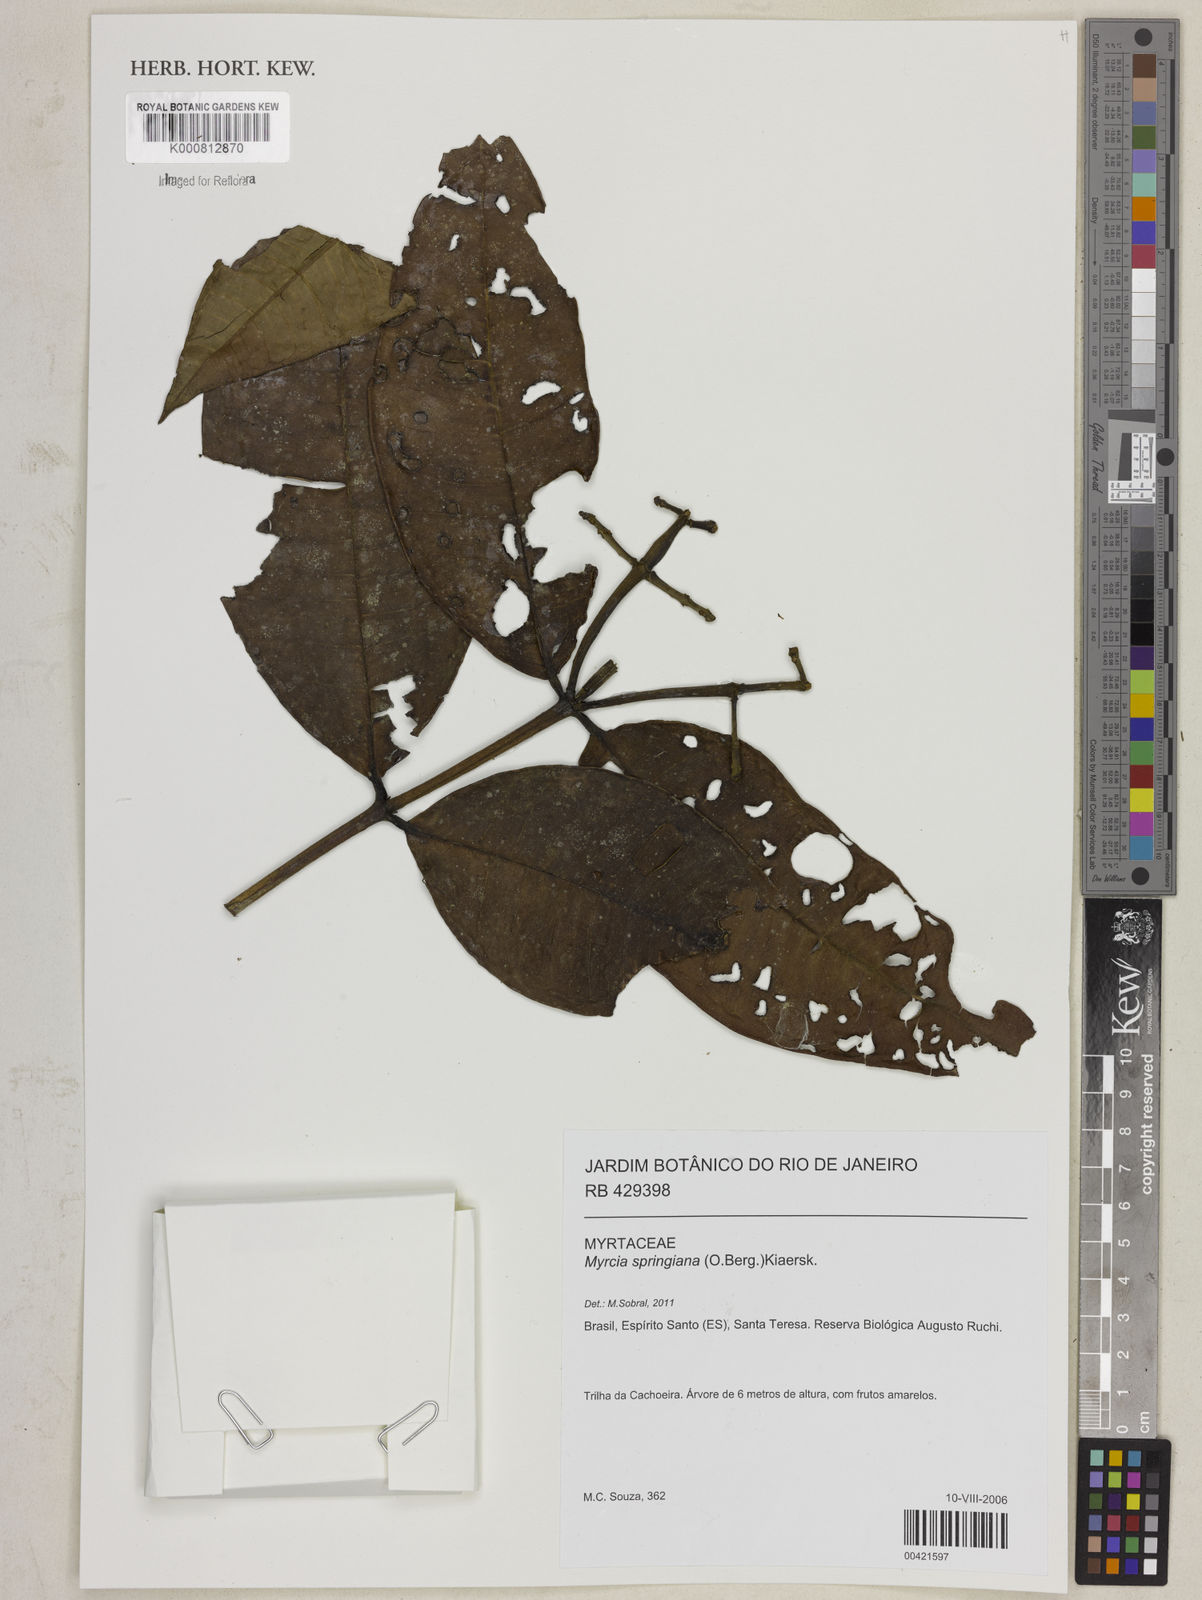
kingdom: Plantae
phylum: Tracheophyta
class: Magnoliopsida
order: Myrtales
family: Myrtaceae
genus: Myrcia
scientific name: Myrcia springiana
